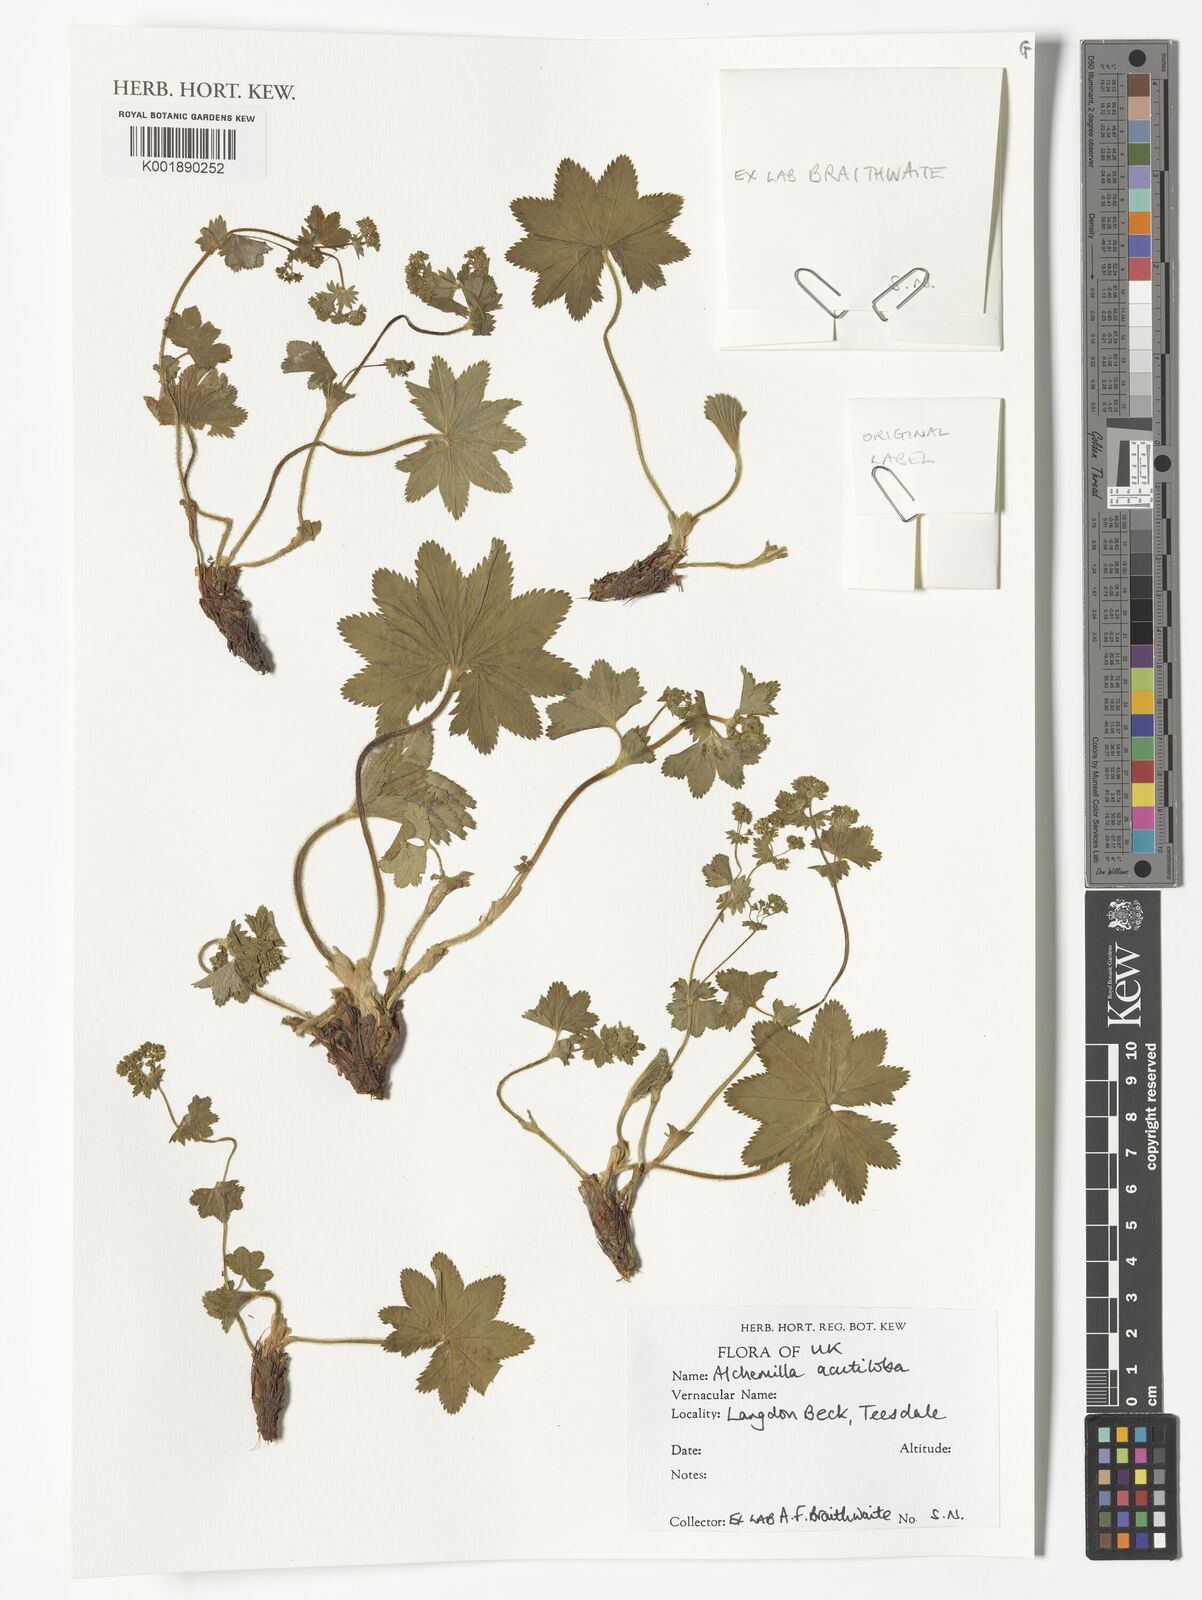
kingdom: Plantae
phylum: Tracheophyta
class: Magnoliopsida
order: Rosales
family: Rosaceae
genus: Alchemilla
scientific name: Alchemilla vulgaris
